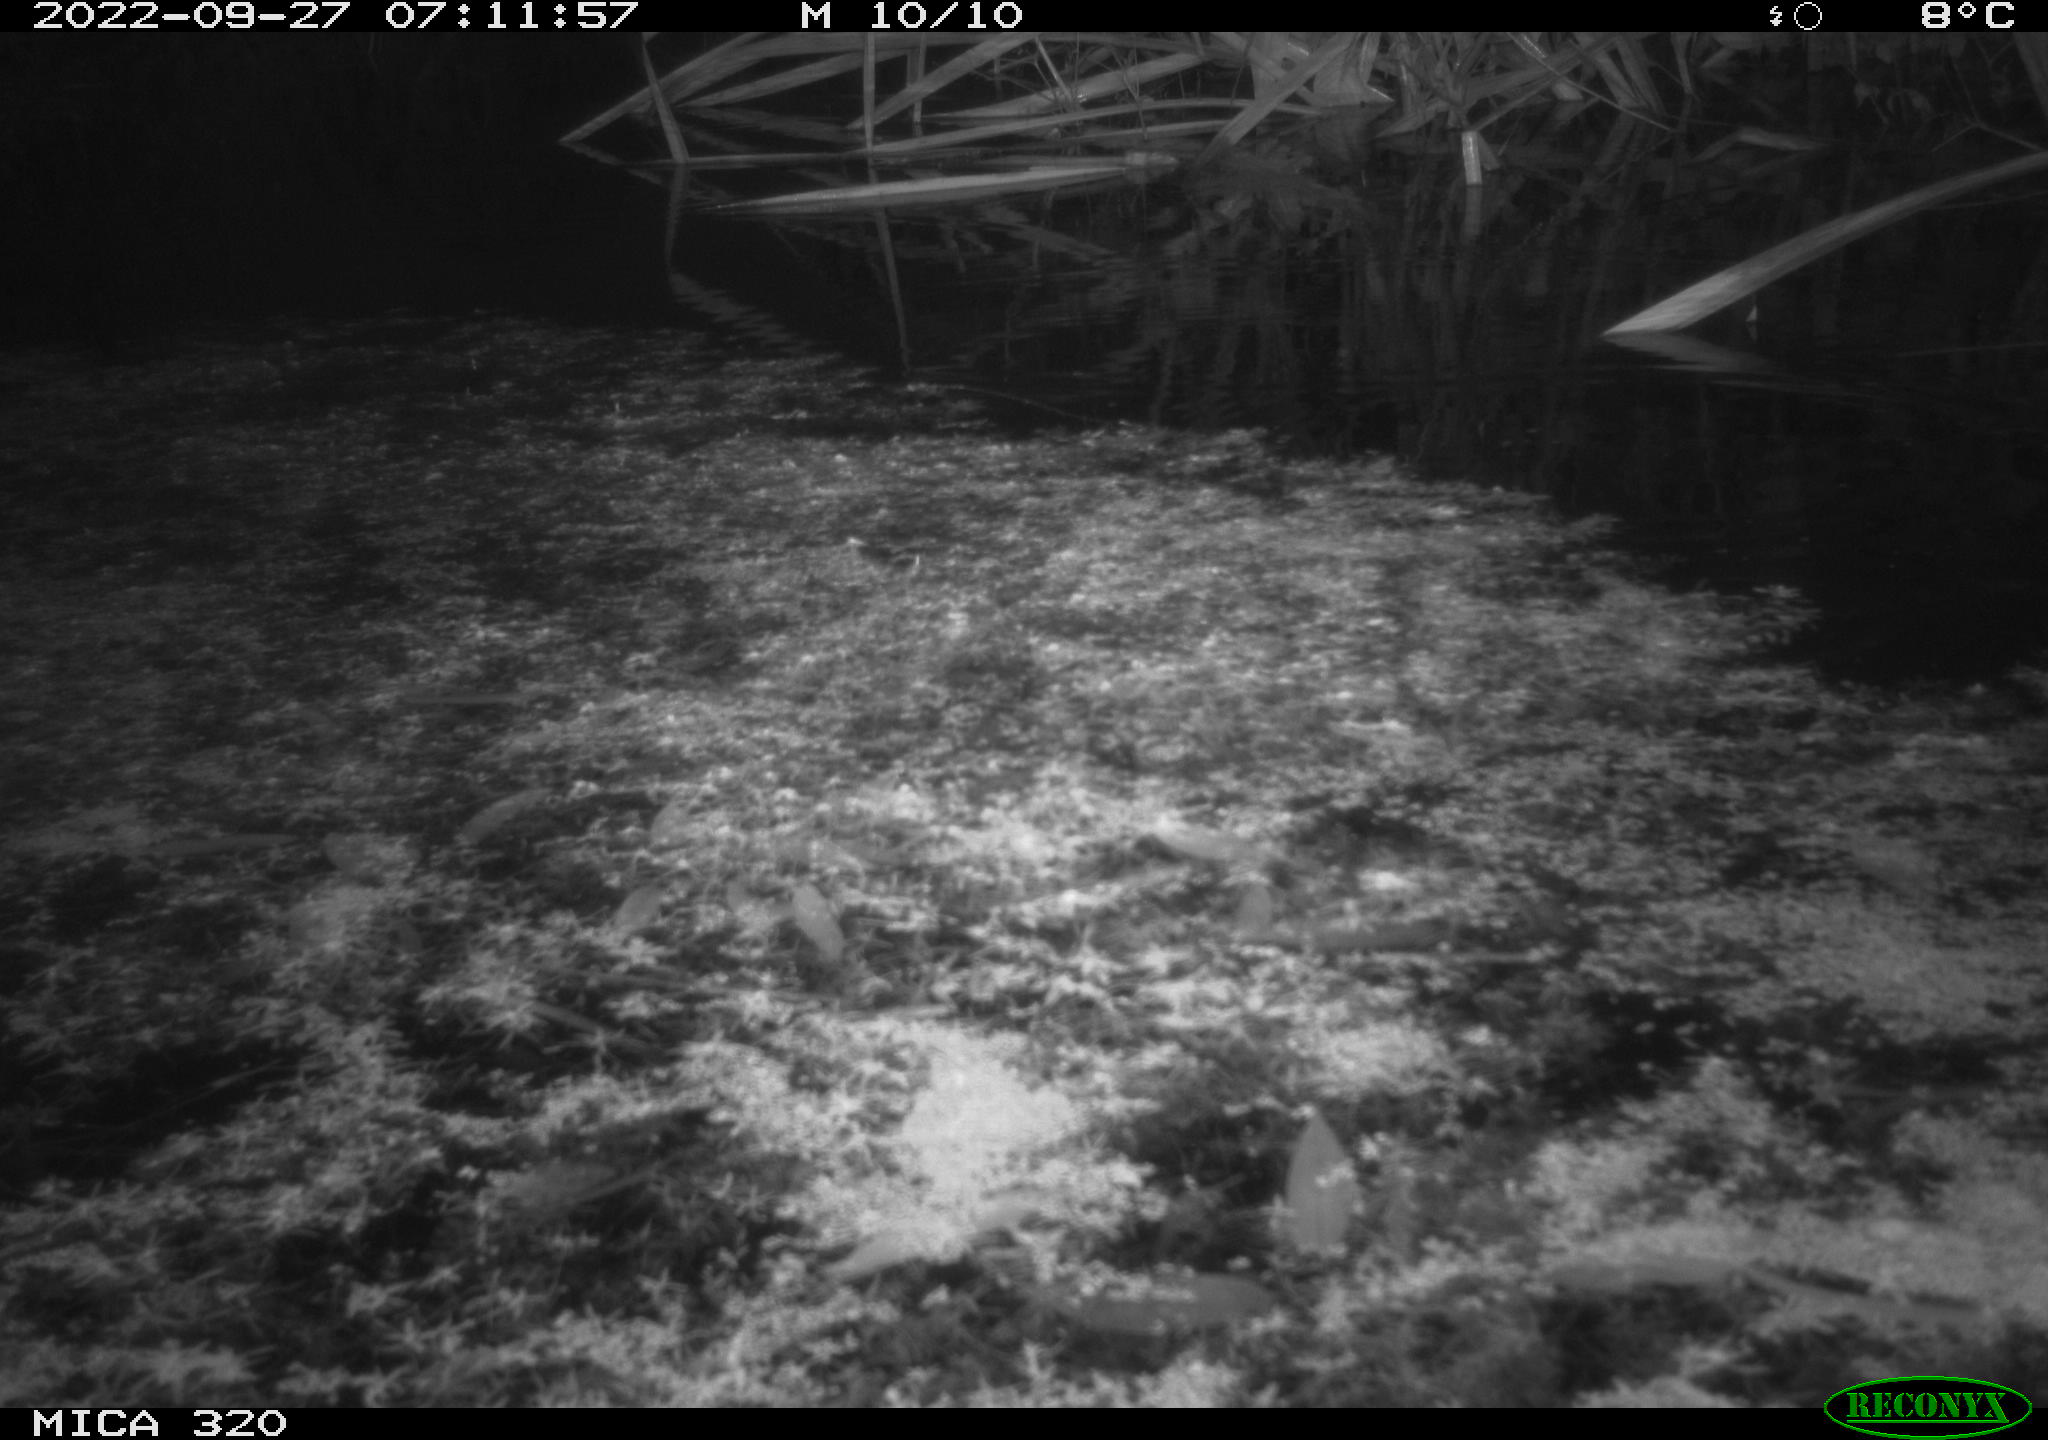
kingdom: Animalia
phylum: Chordata
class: Aves
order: Gruiformes
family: Rallidae
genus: Gallinula
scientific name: Gallinula chloropus
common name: Common moorhen
